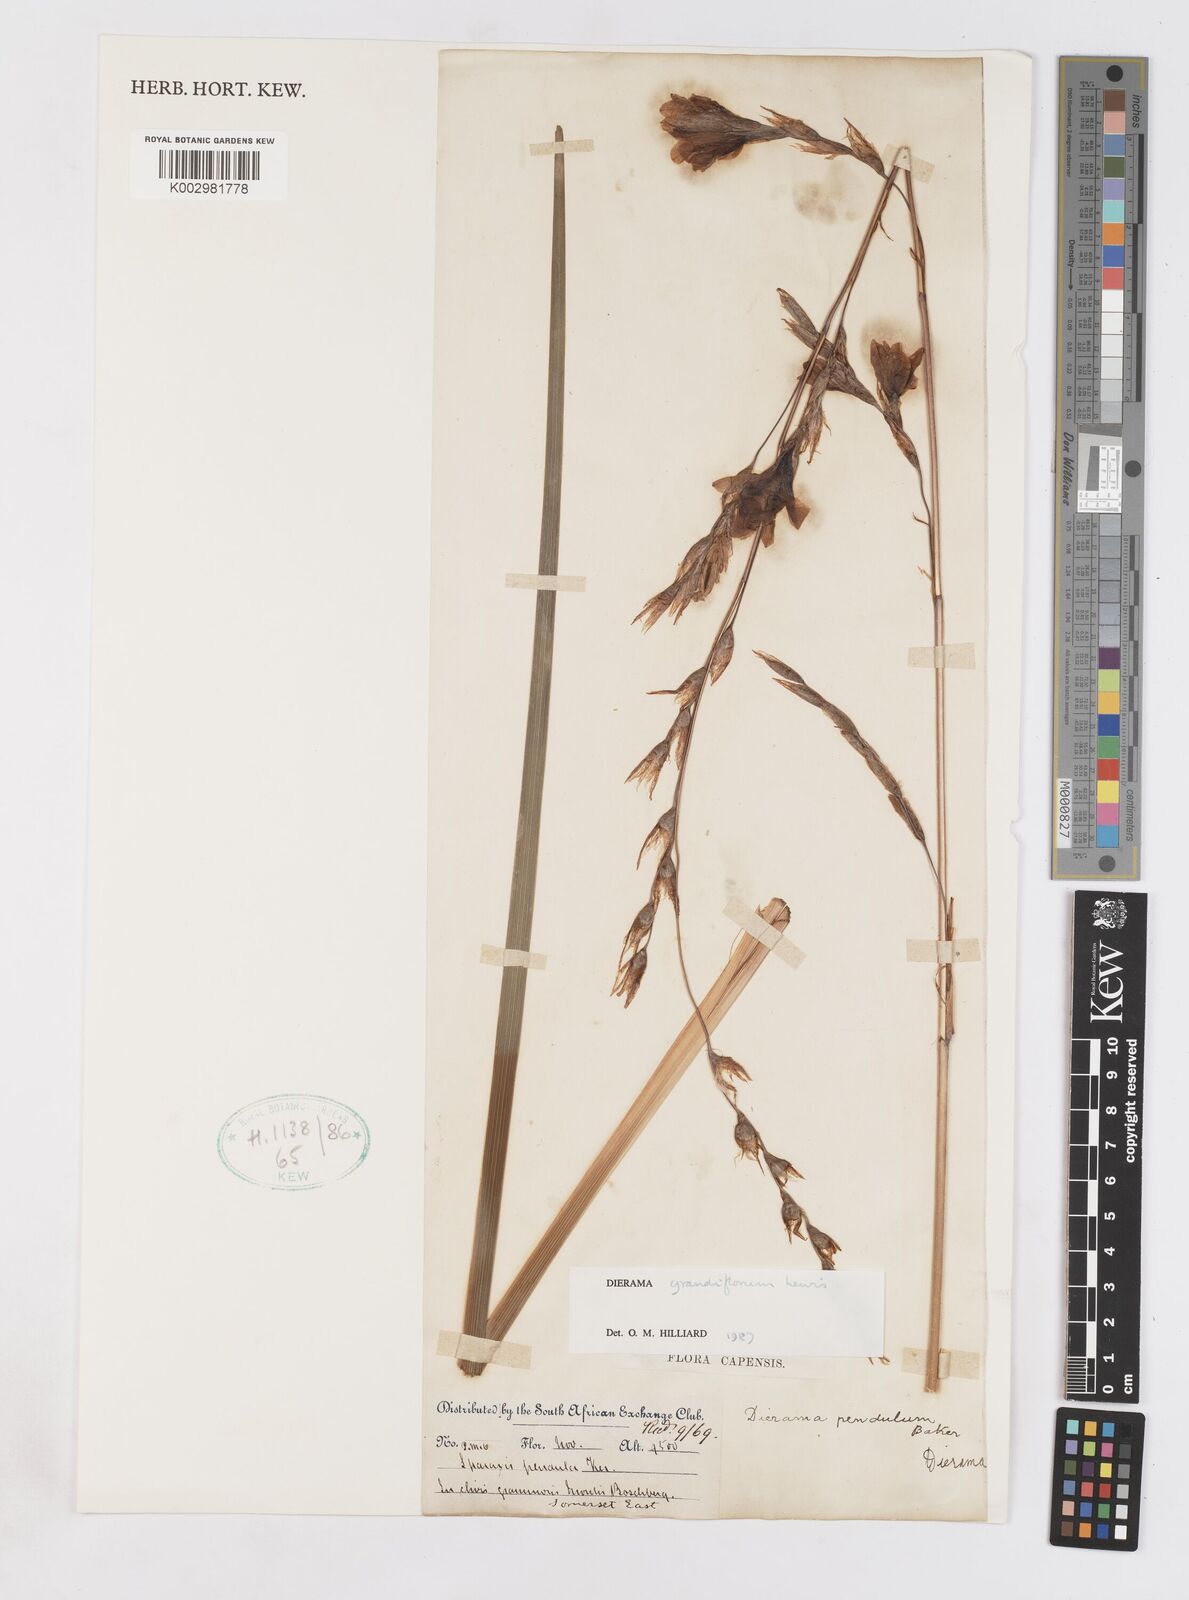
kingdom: Plantae
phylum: Tracheophyta
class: Liliopsida
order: Asparagales
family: Iridaceae
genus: Dierama
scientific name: Dierama grandiflorum
